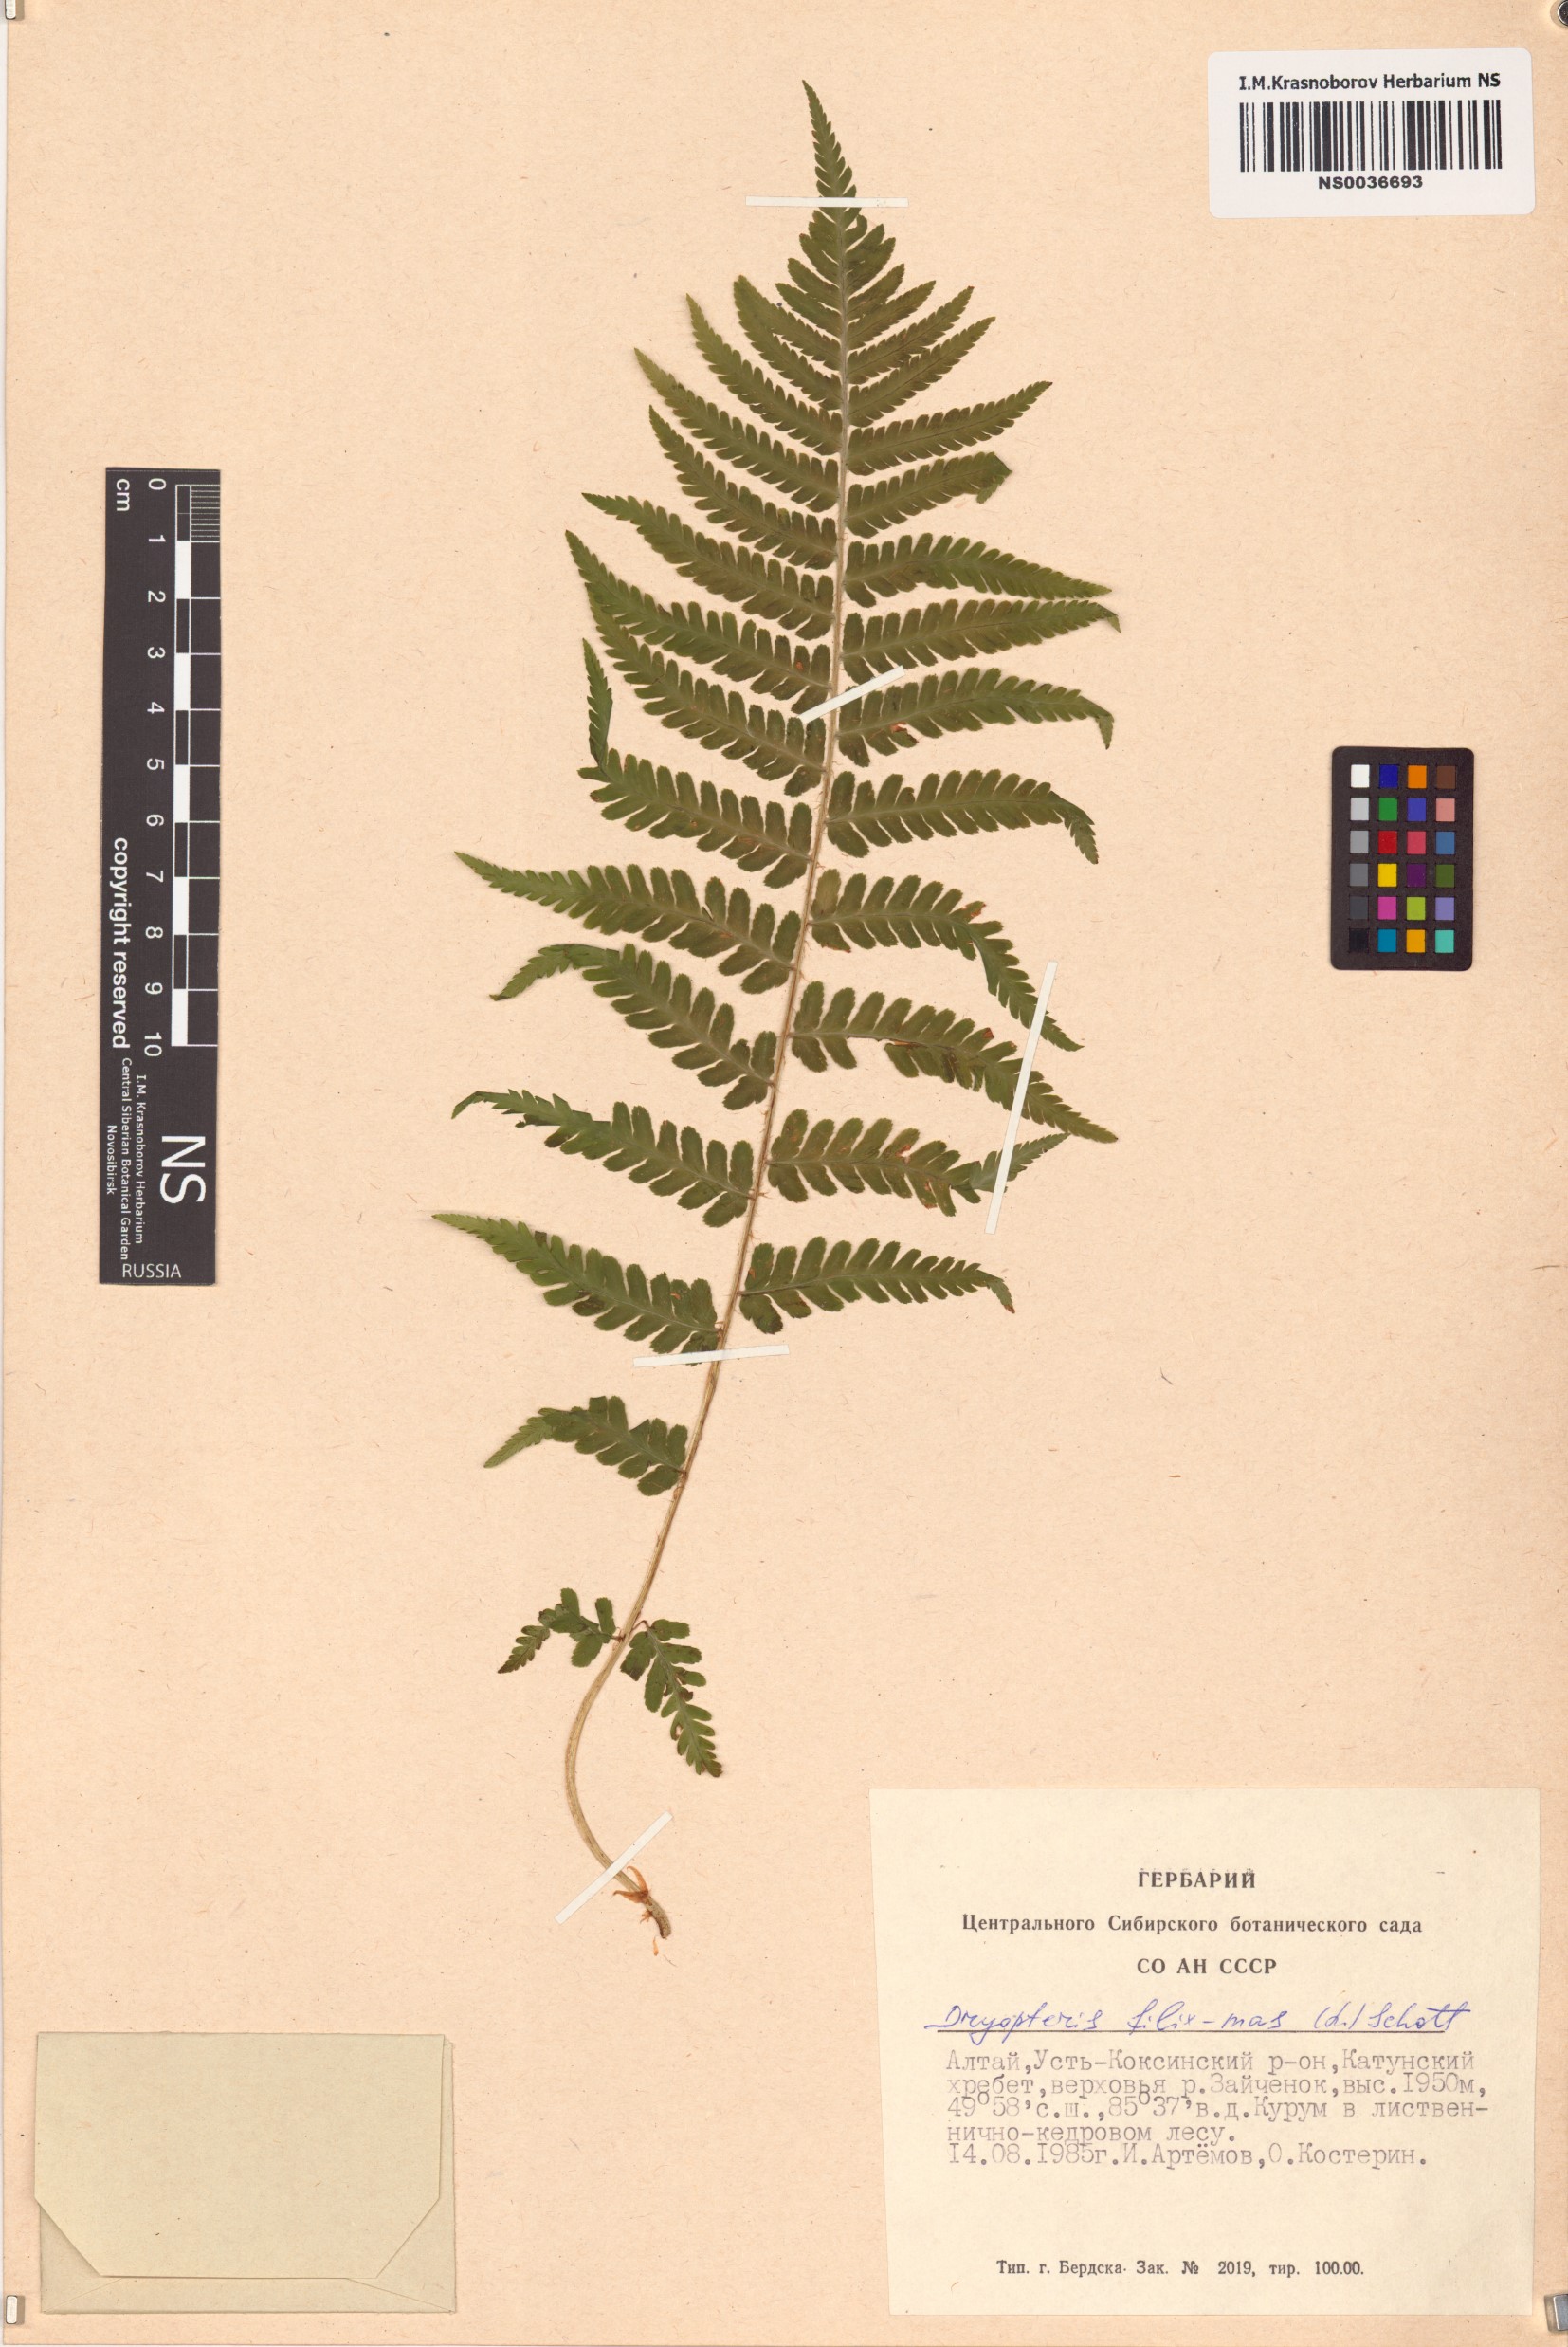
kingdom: Plantae
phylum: Tracheophyta
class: Polypodiopsida
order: Polypodiales
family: Dryopteridaceae
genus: Dryopteris
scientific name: Dryopteris filix-mas
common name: Male fern
